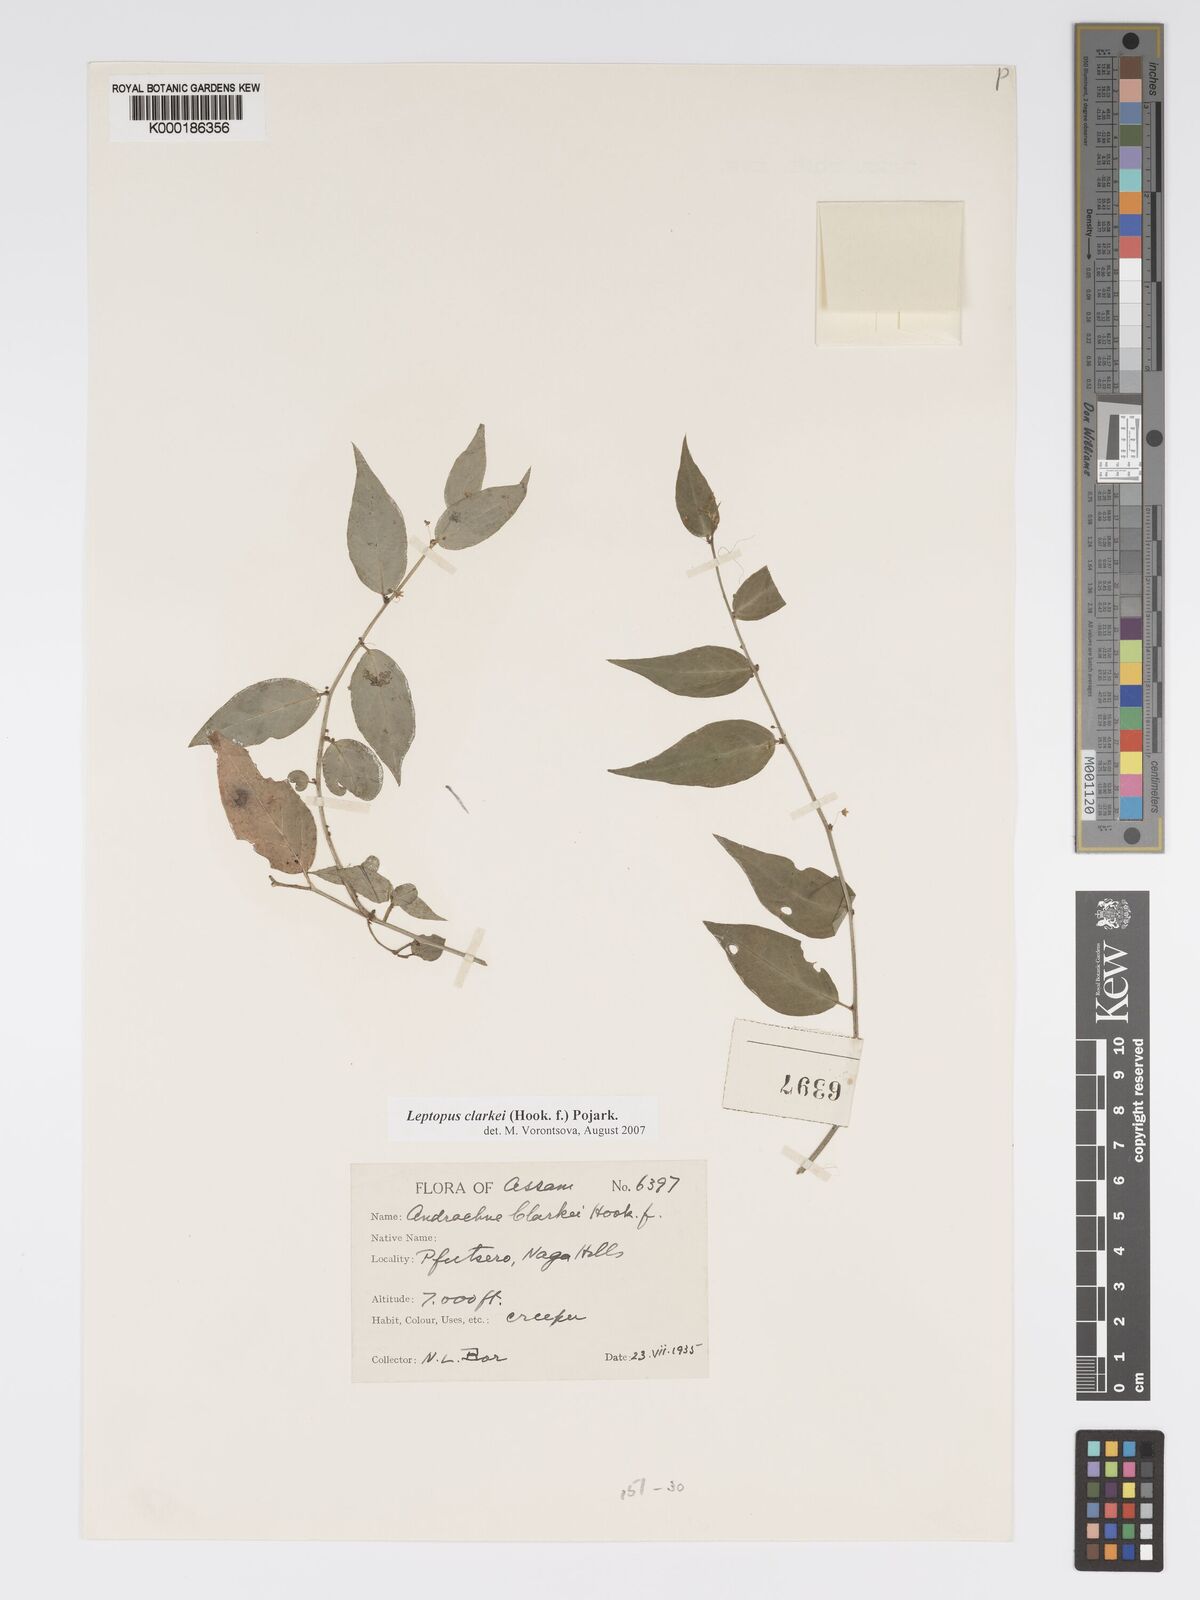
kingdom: Plantae
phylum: Tracheophyta
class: Magnoliopsida
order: Malpighiales
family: Phyllanthaceae
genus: Leptopus
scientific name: Leptopus clarkei
